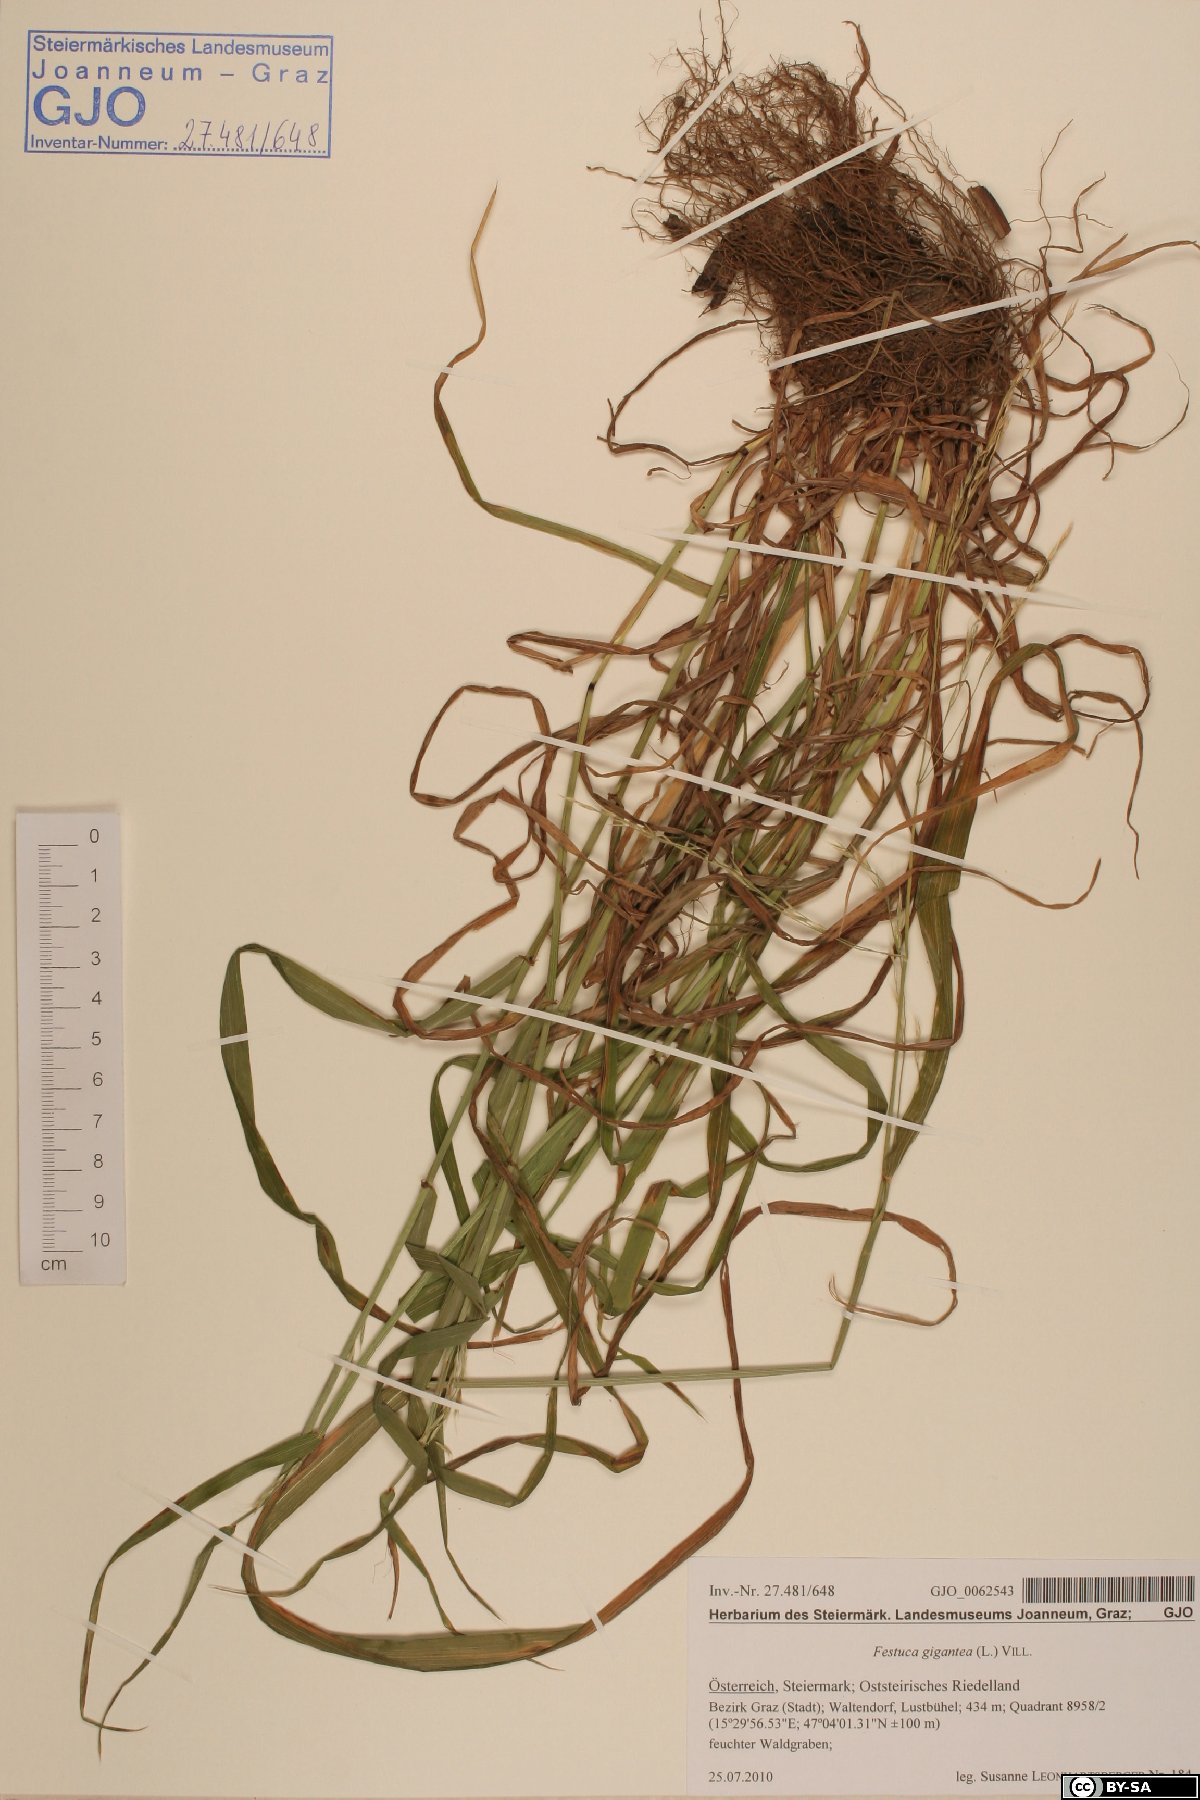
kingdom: Plantae
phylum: Tracheophyta
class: Liliopsida
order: Poales
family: Poaceae
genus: Lolium
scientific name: Lolium giganteum
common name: Giant fescue
